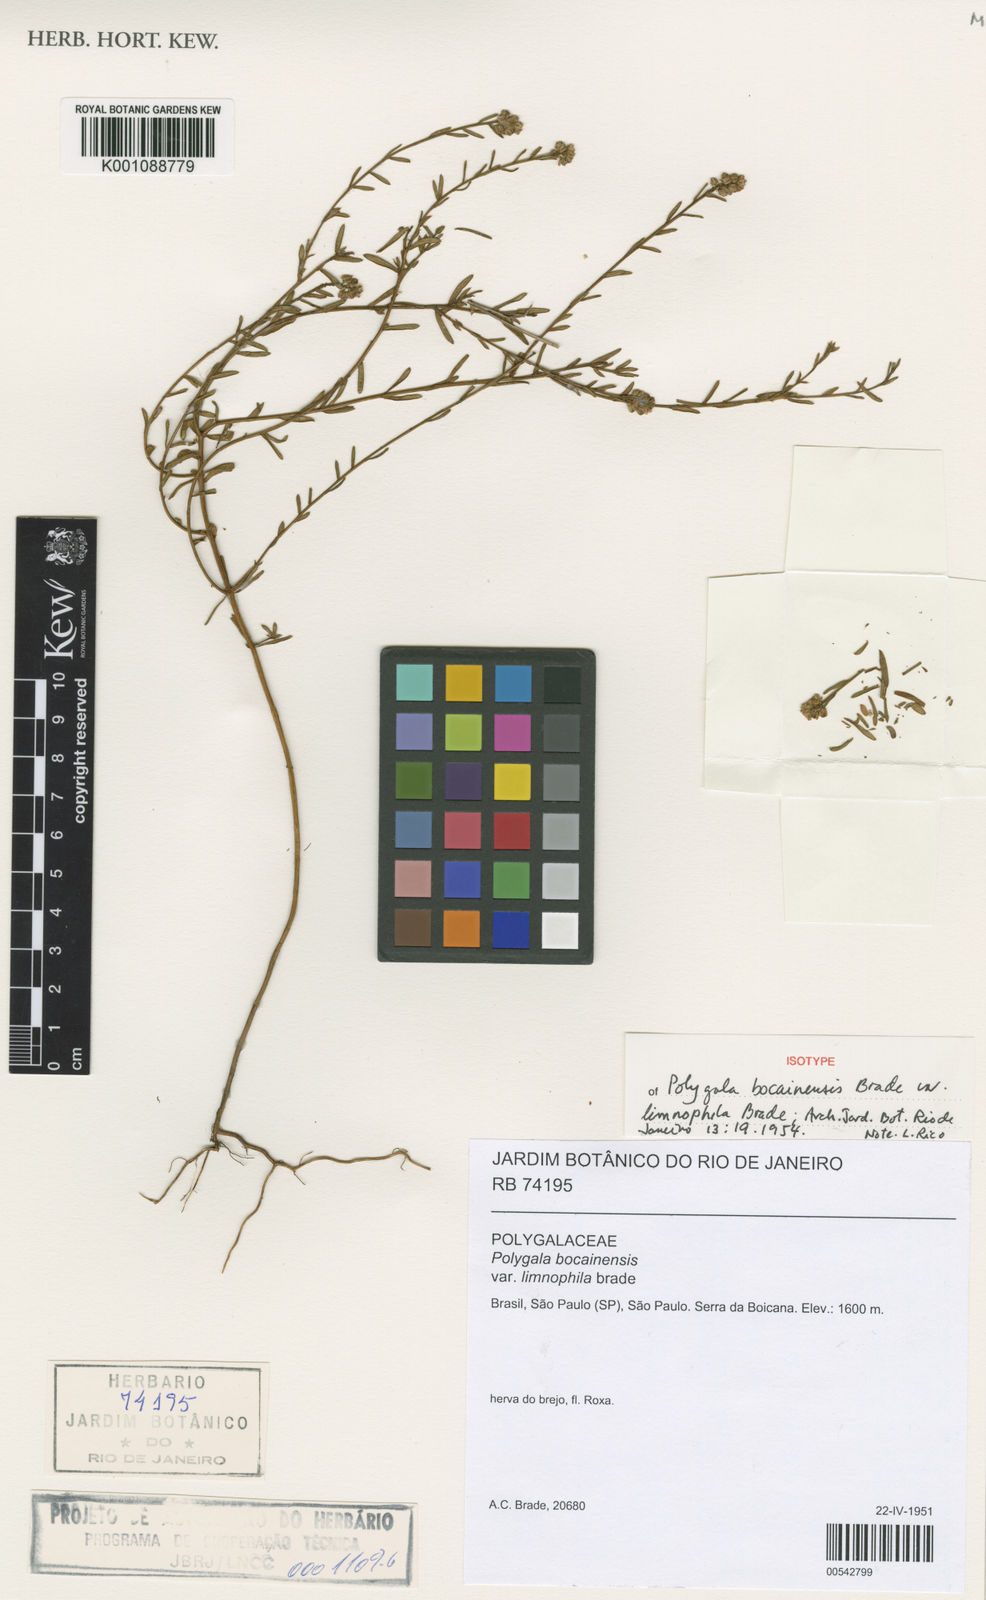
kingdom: Plantae
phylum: Tracheophyta
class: Magnoliopsida
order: Fabales
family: Polygalaceae
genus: Polygala
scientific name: Polygala bocainensis
